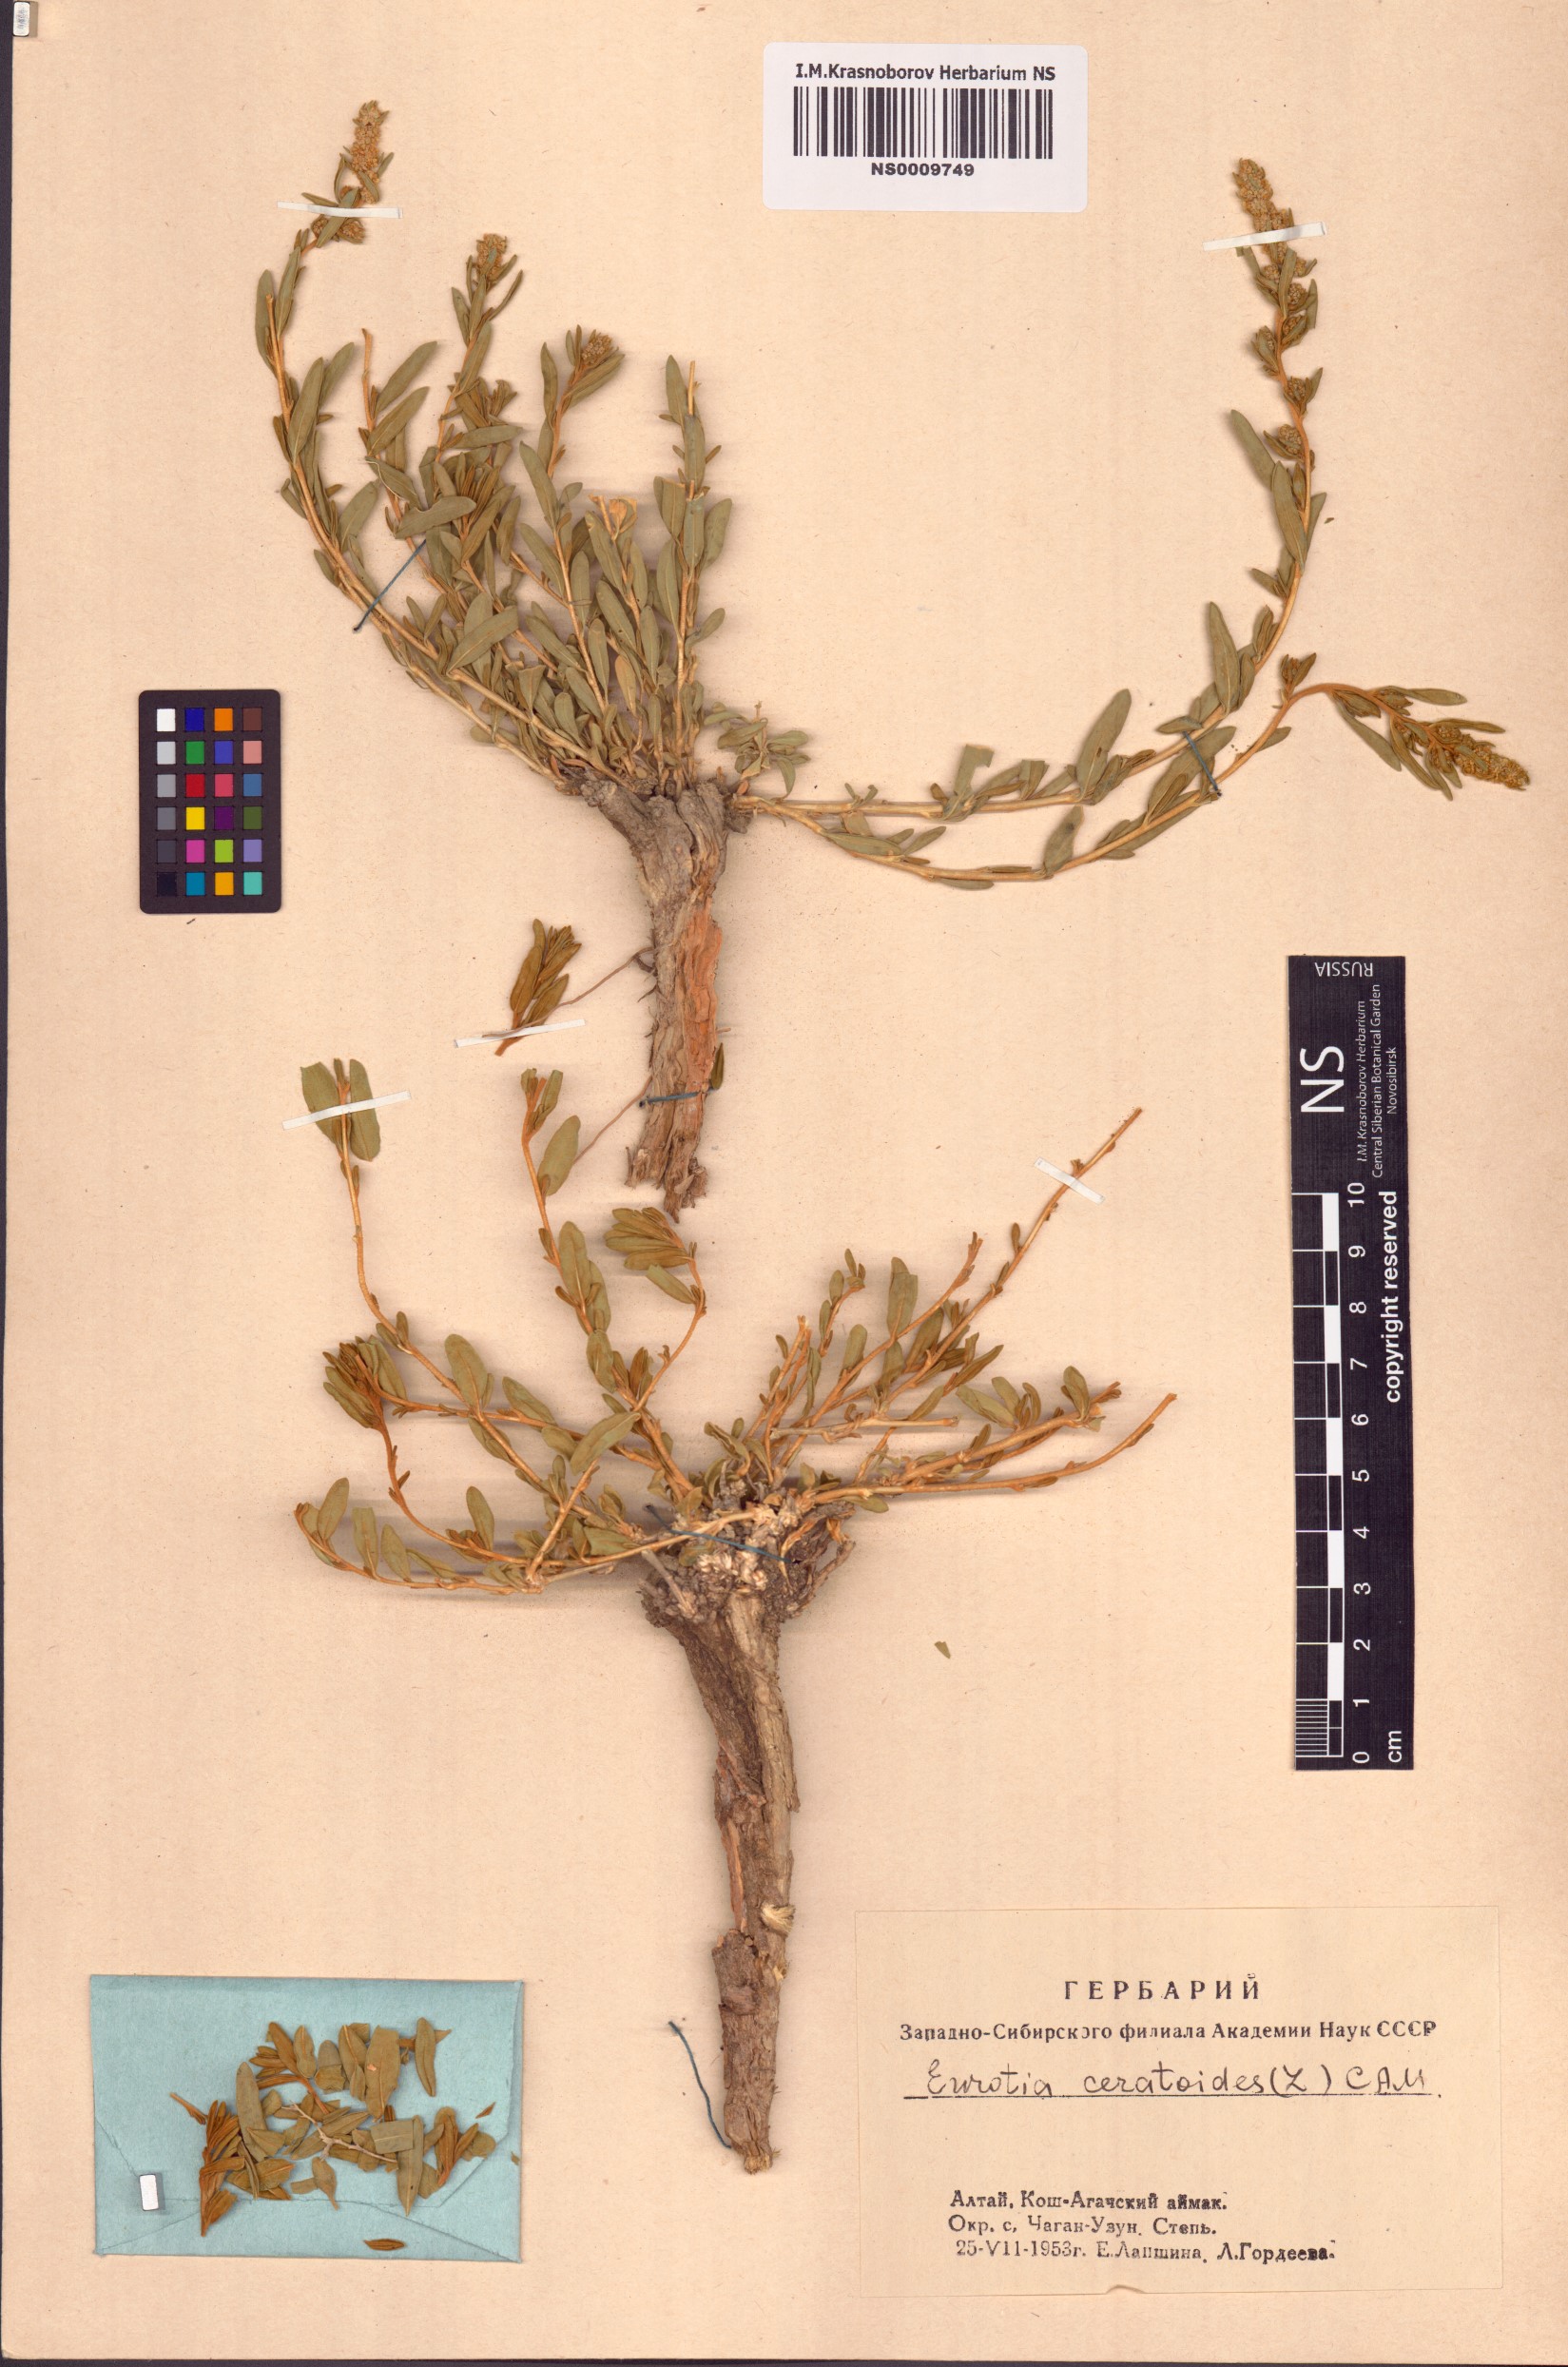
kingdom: Plantae
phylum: Tracheophyta
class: Magnoliopsida
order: Caryophyllales
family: Amaranthaceae
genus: Krascheninnikovia
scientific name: Krascheninnikovia ceratoides
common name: Pamirian winterfat
